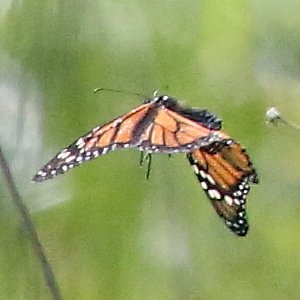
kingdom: Animalia
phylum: Arthropoda
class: Insecta
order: Lepidoptera
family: Nymphalidae
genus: Danaus
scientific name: Danaus plexippus
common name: Monarch
